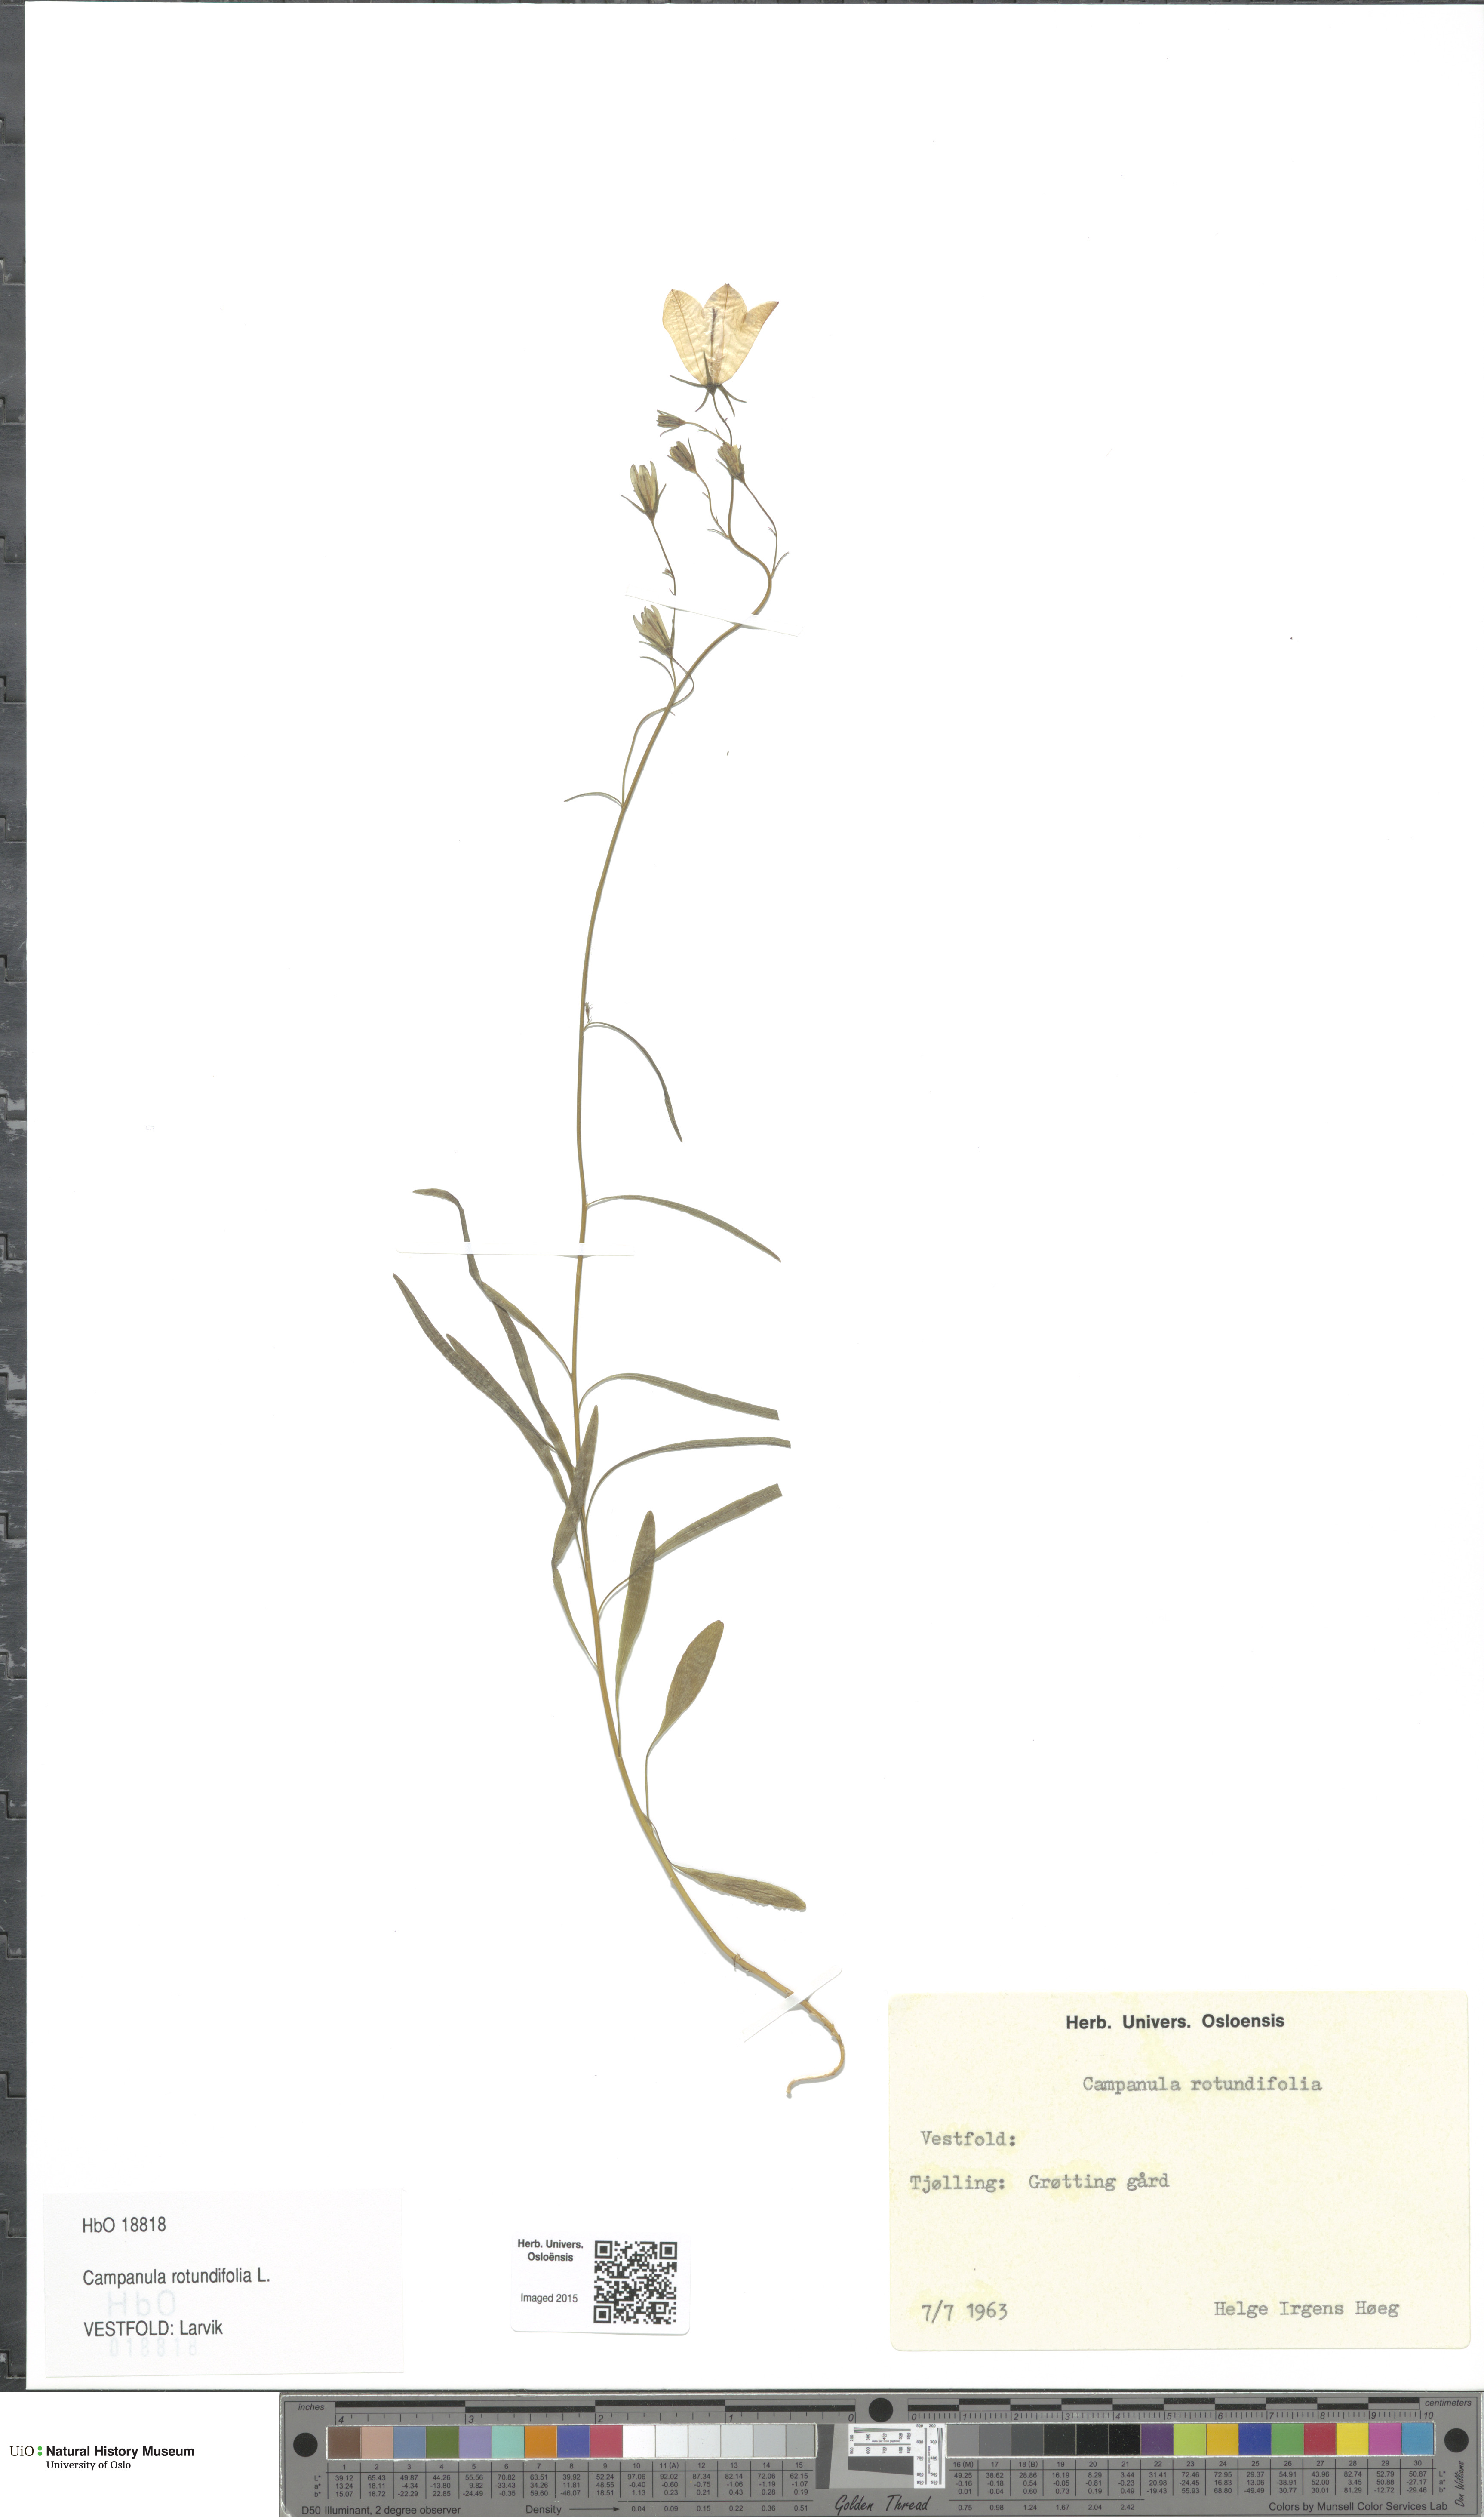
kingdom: Plantae
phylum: Tracheophyta
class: Magnoliopsida
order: Asterales
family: Campanulaceae
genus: Campanula
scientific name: Campanula rotundifolia
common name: Harebell
